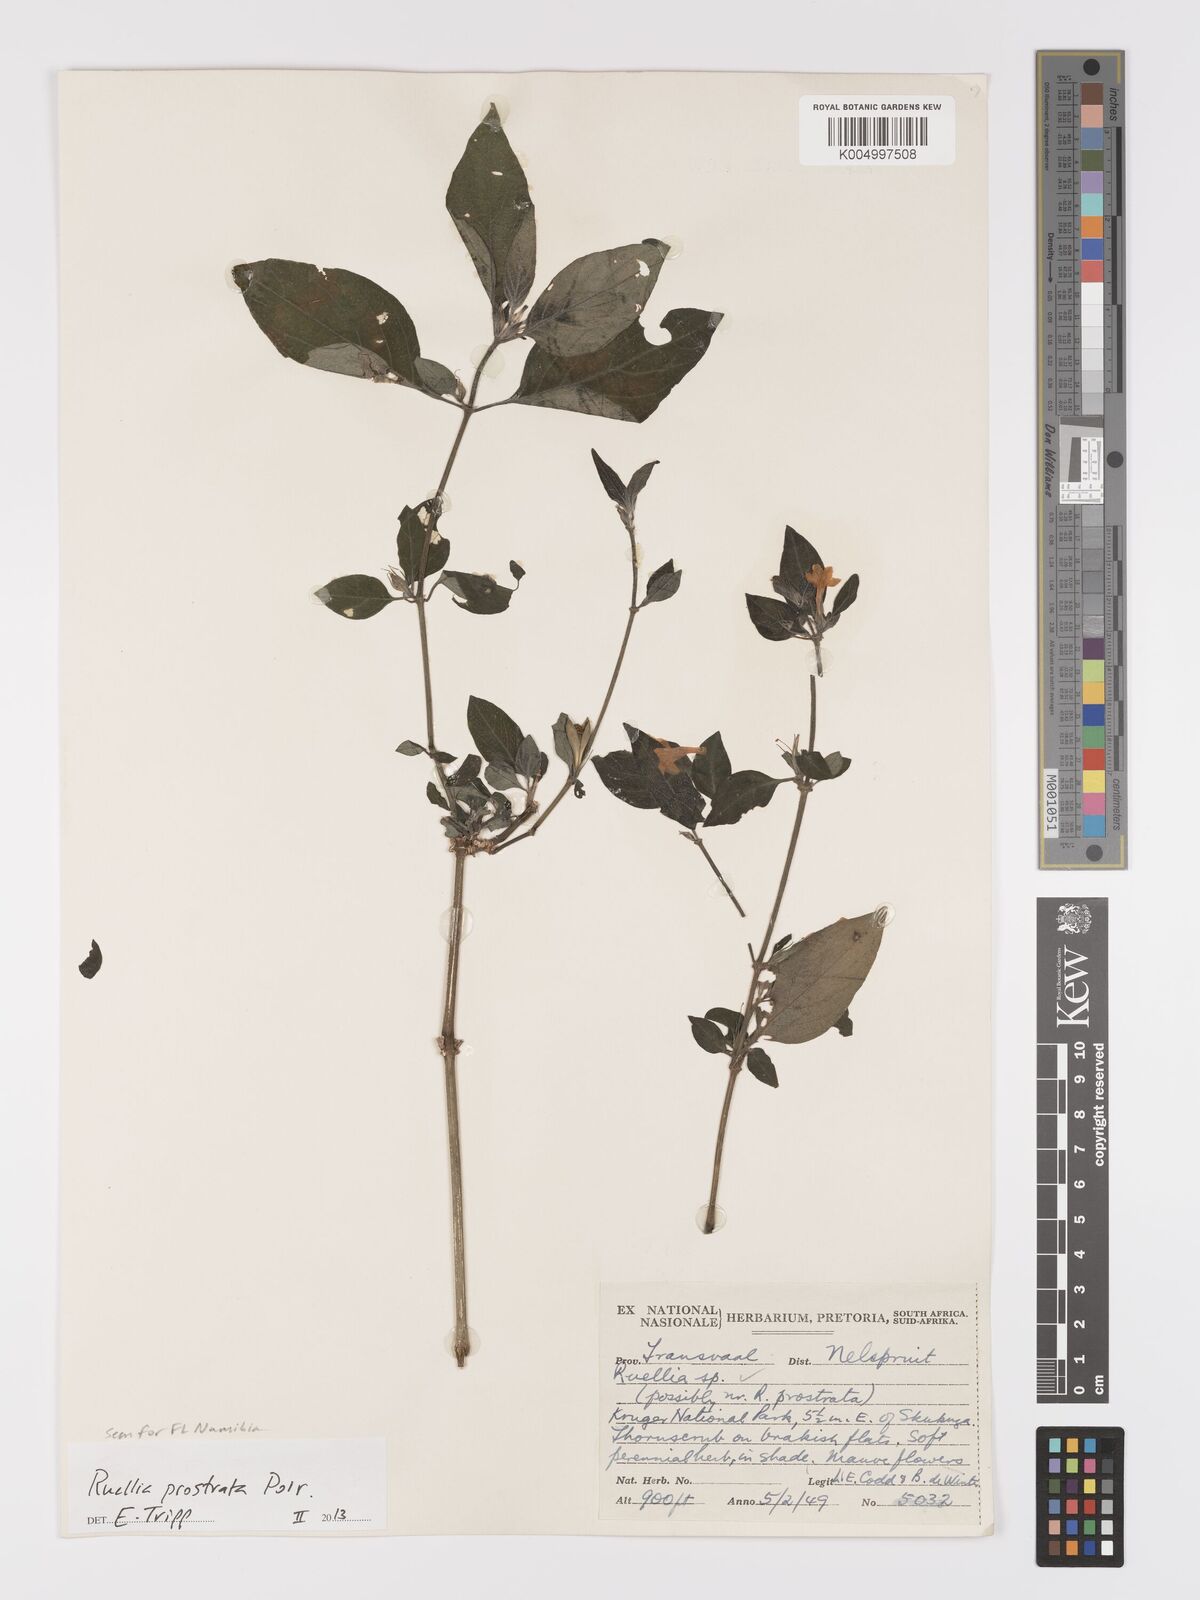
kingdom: Plantae
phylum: Tracheophyta
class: Magnoliopsida
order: Lamiales
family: Acanthaceae
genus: Ruellia
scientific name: Ruellia
